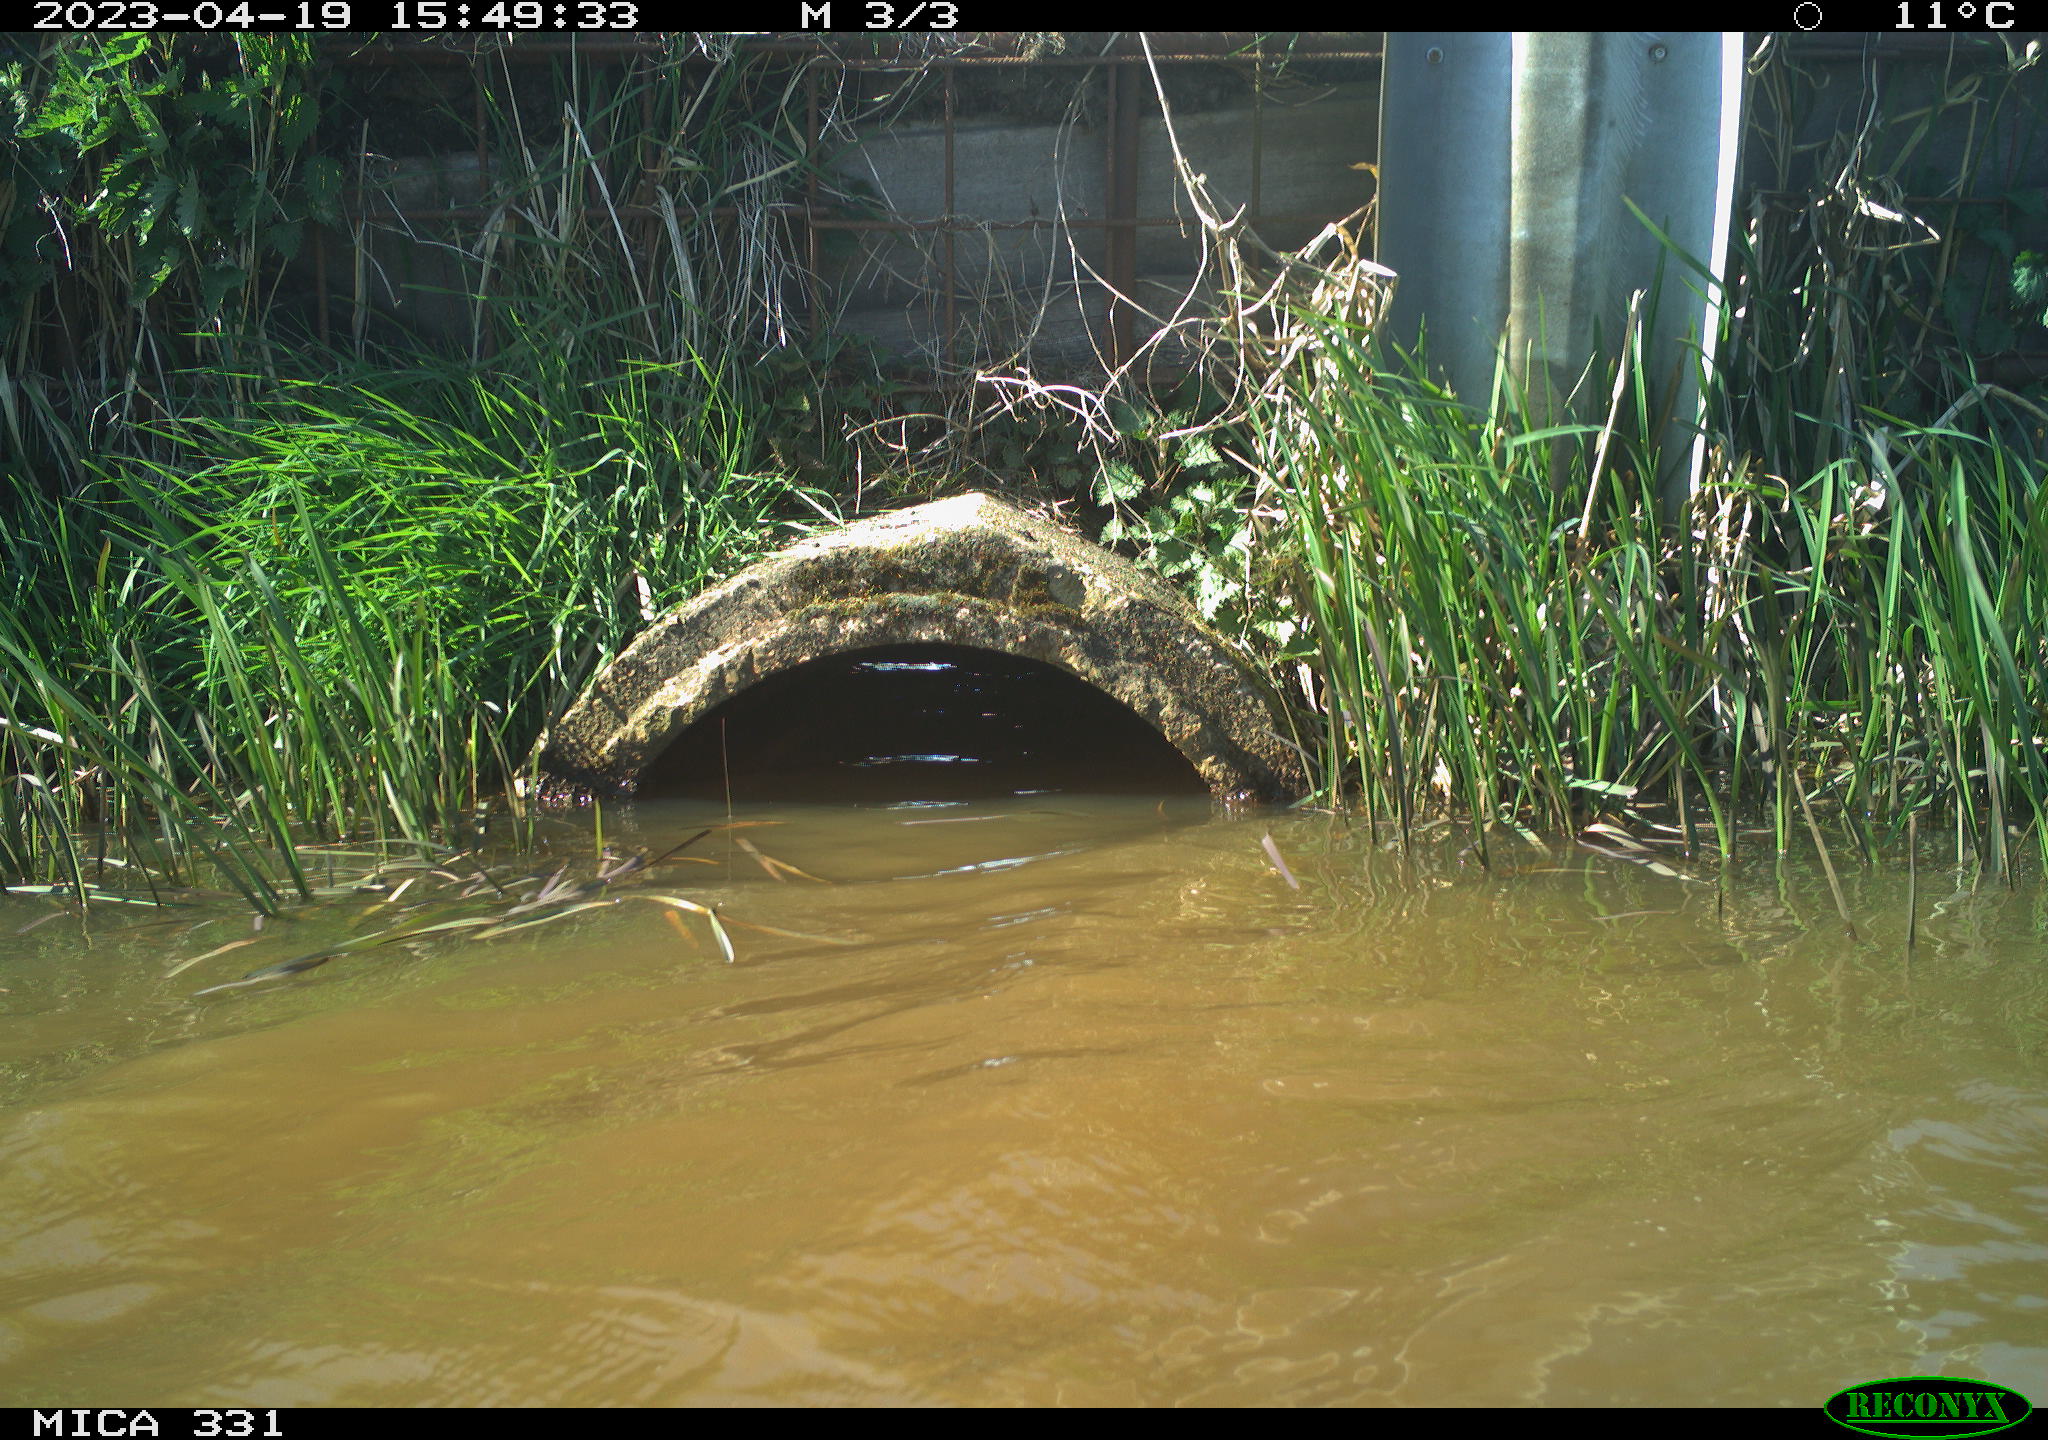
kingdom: Animalia
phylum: Chordata
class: Aves
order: Gruiformes
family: Rallidae
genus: Gallinula
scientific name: Gallinula chloropus
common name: Common moorhen
